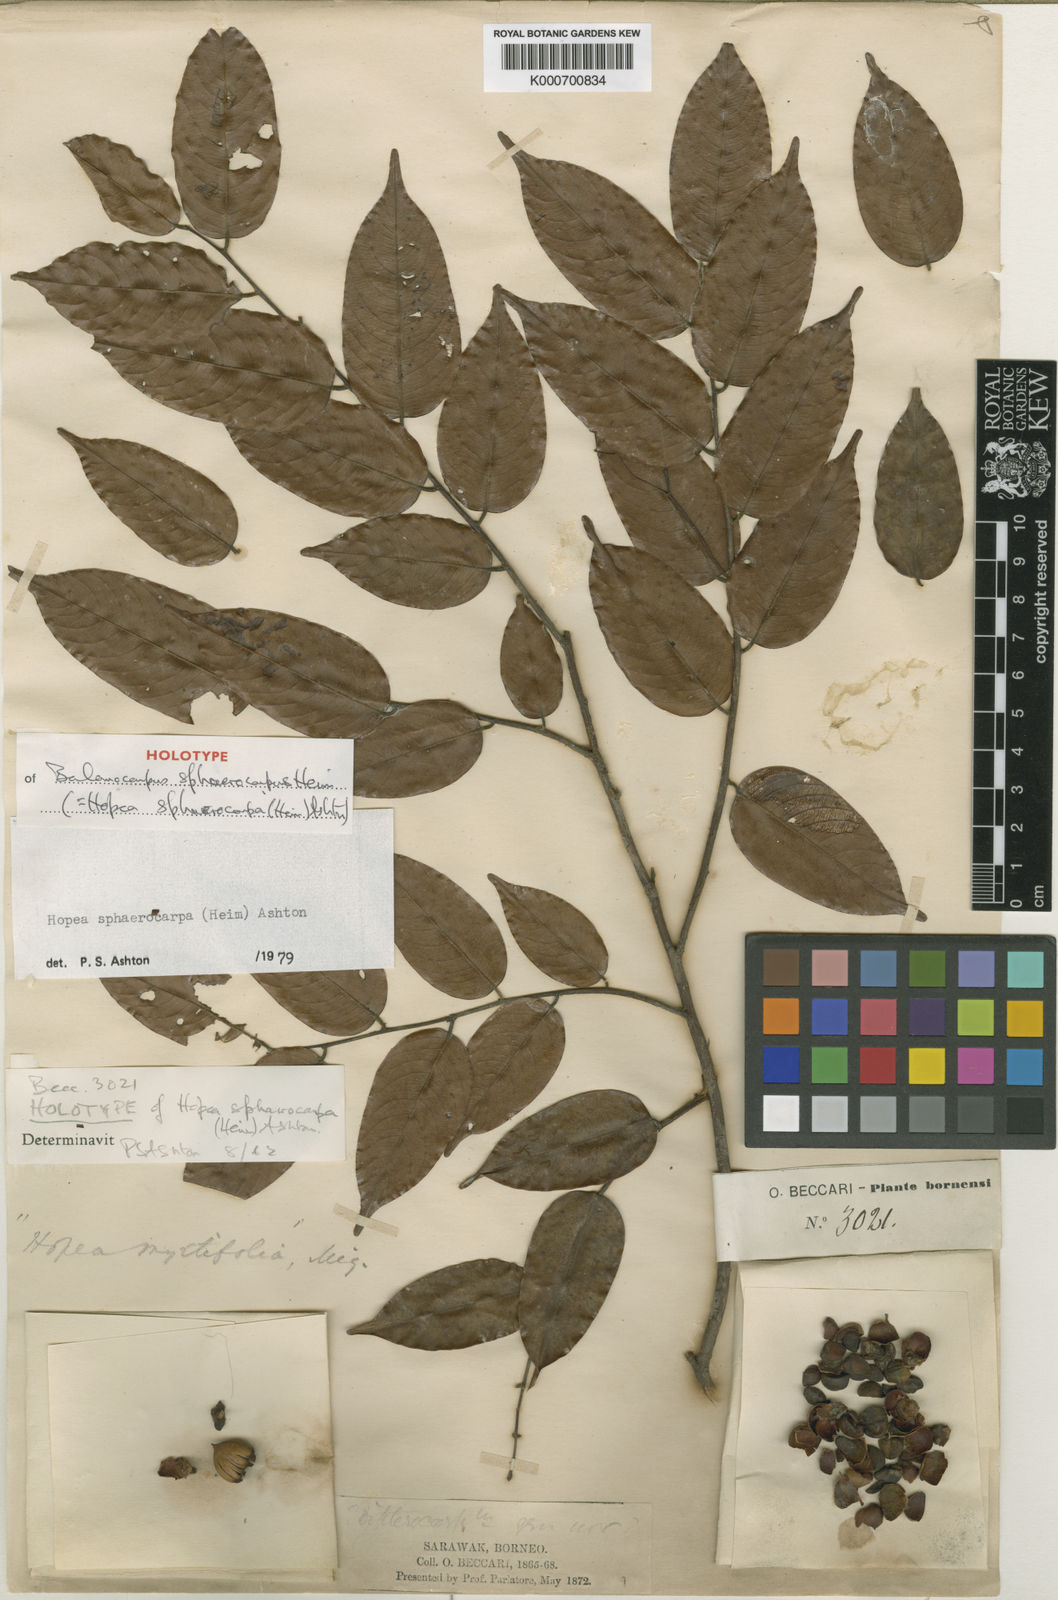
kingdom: Plantae
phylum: Tracheophyta
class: Magnoliopsida
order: Malvales
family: Dipterocarpaceae
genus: Hopea
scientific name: Hopea sphaerocarpa
